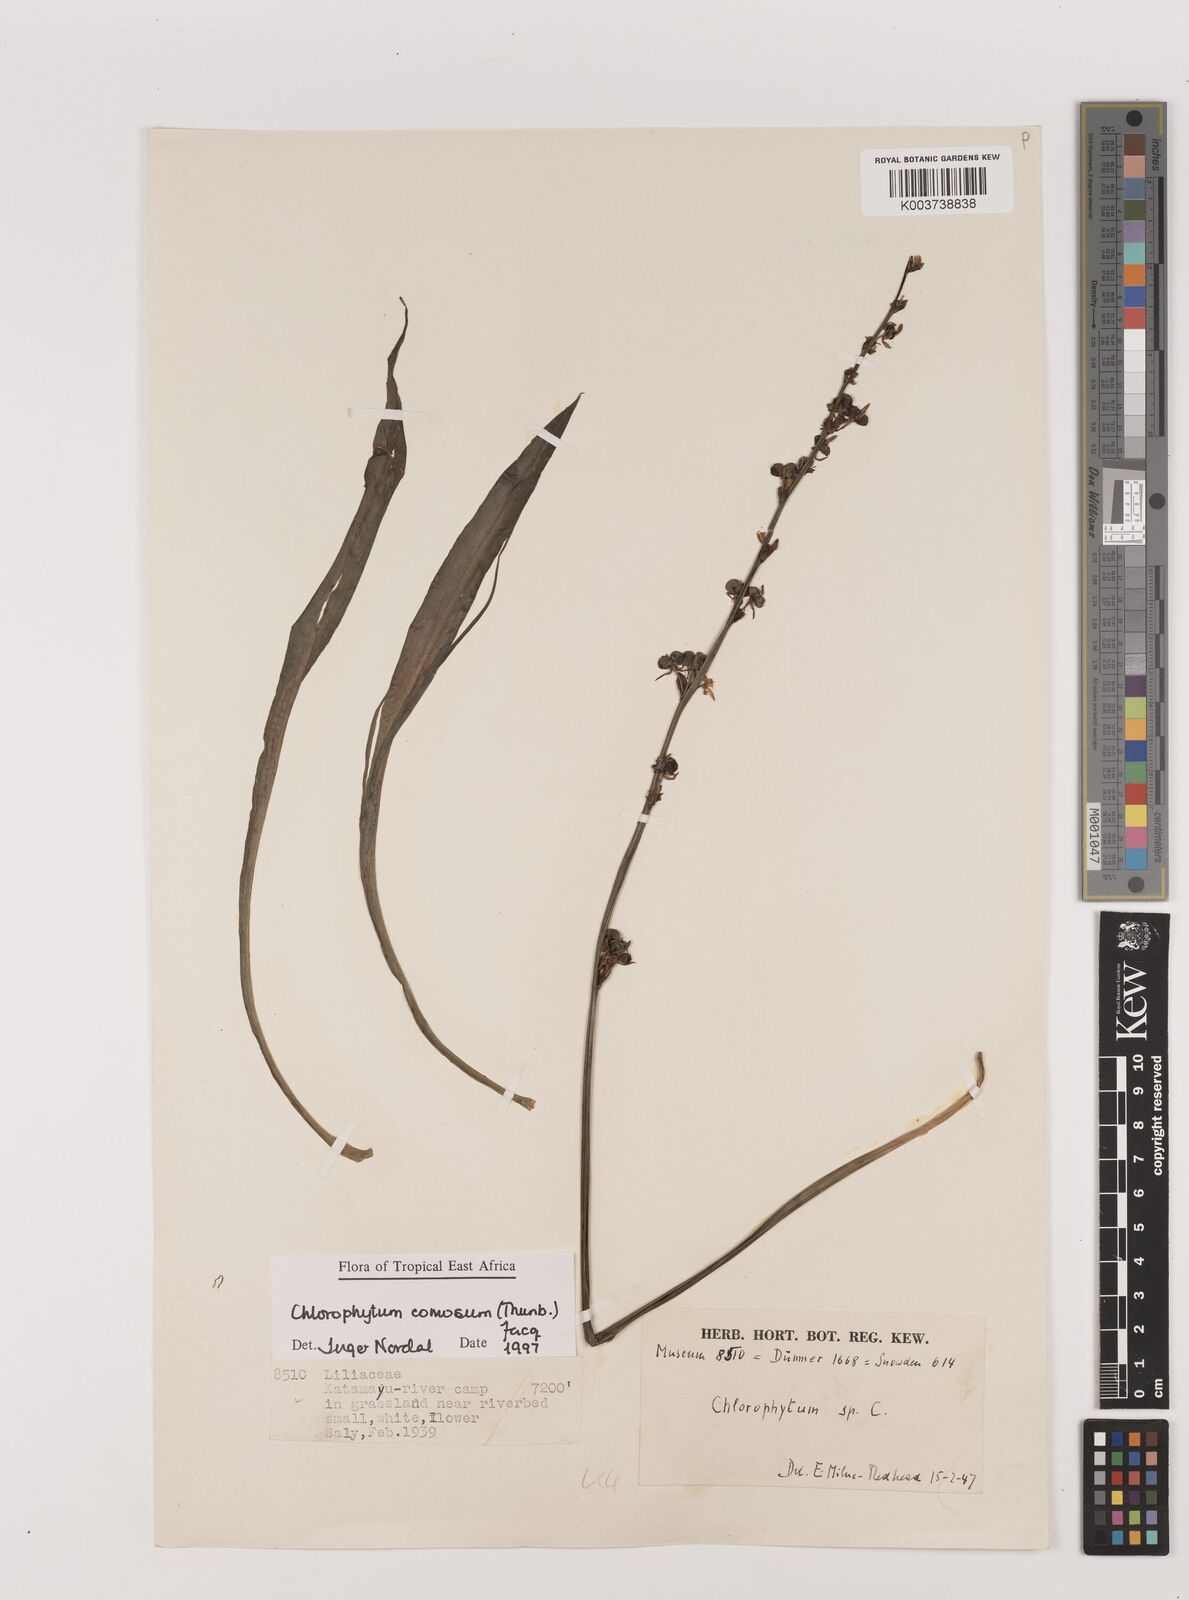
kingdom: Plantae
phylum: Tracheophyta
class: Liliopsida
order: Asparagales
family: Asparagaceae
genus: Chlorophytum
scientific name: Chlorophytum comosum
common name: Spider plant
